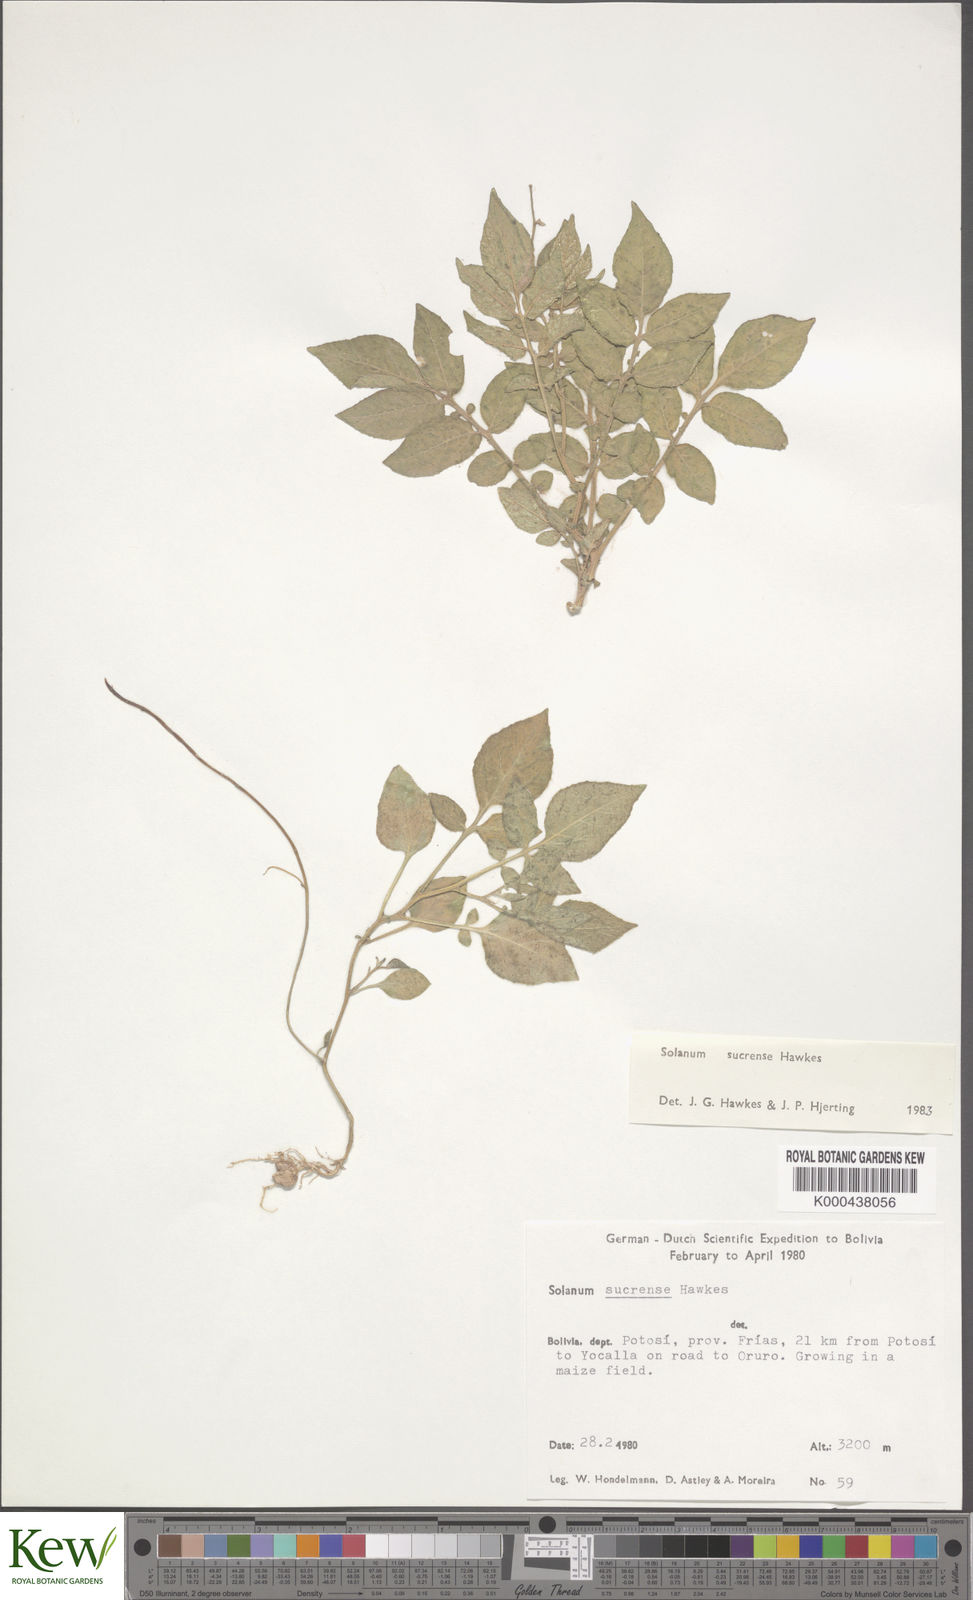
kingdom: Plantae
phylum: Tracheophyta
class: Magnoliopsida
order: Solanales
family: Solanaceae
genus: Solanum
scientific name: Solanum brevicaule
